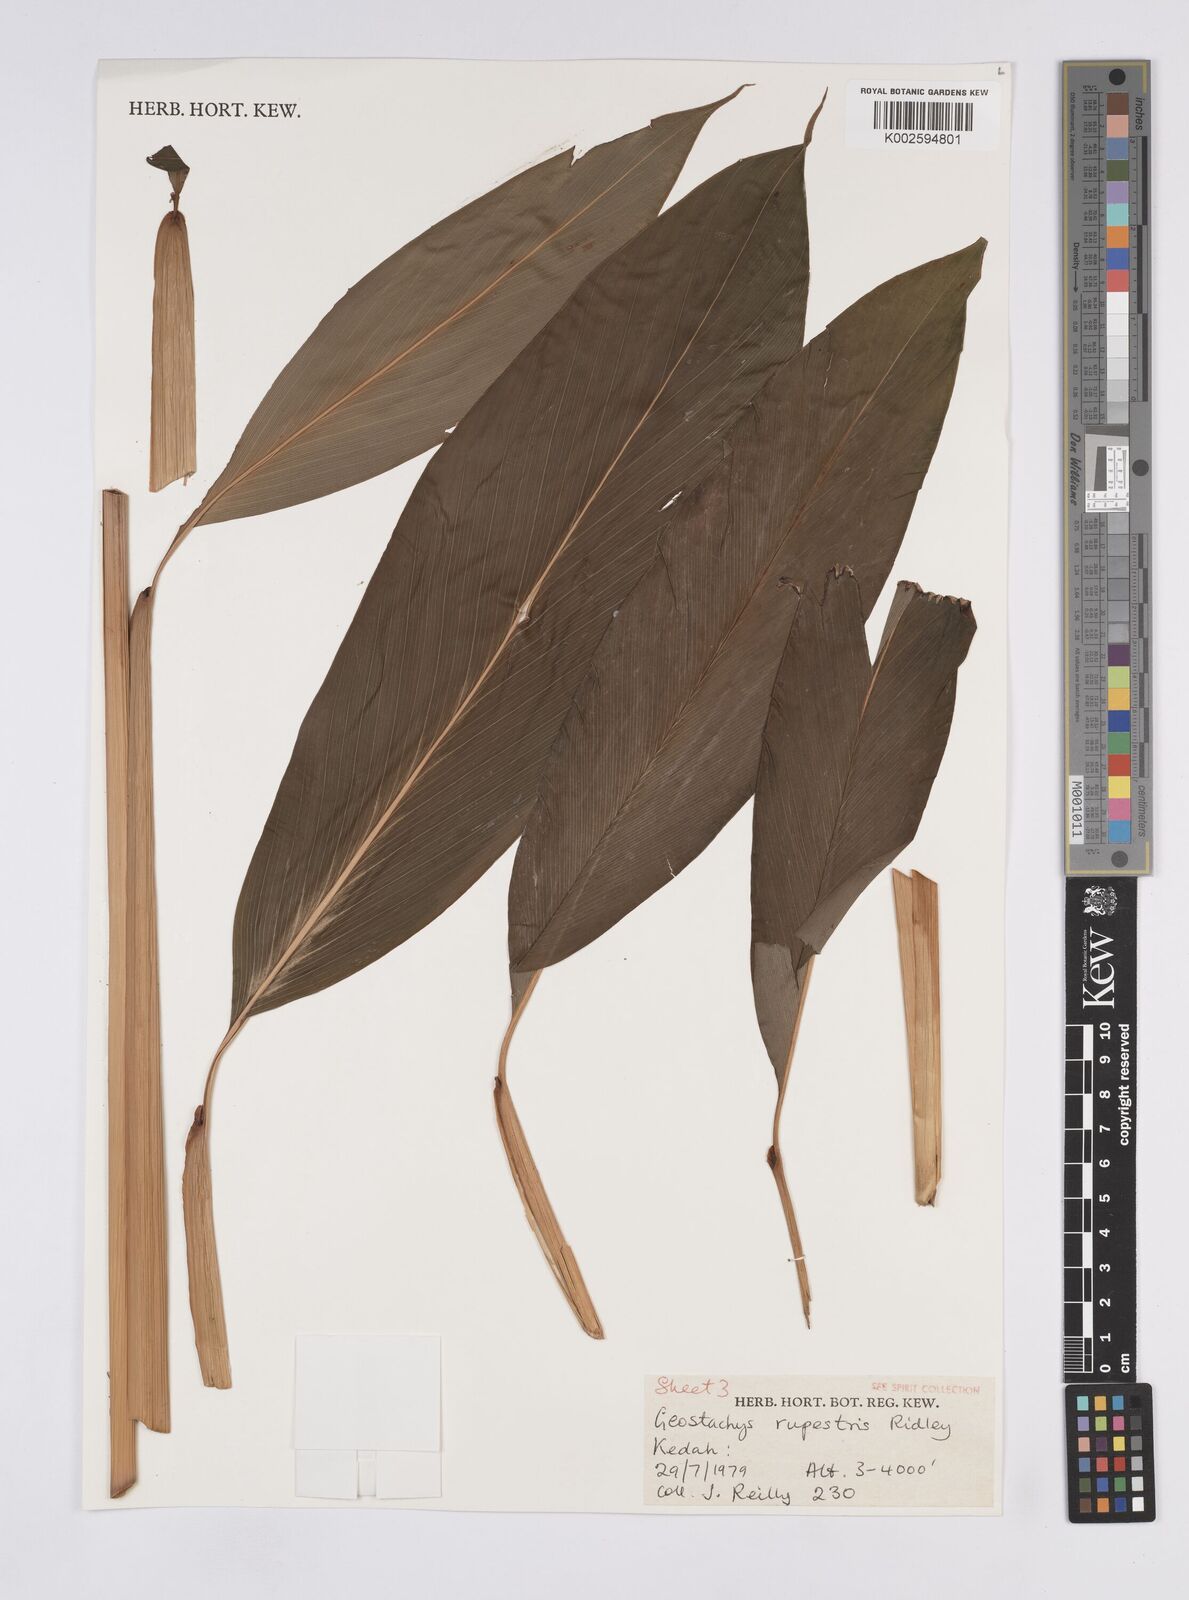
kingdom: Plantae
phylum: Tracheophyta
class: Liliopsida
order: Zingiberales
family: Zingiberaceae
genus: Geostachys
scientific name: Geostachys rupestris
